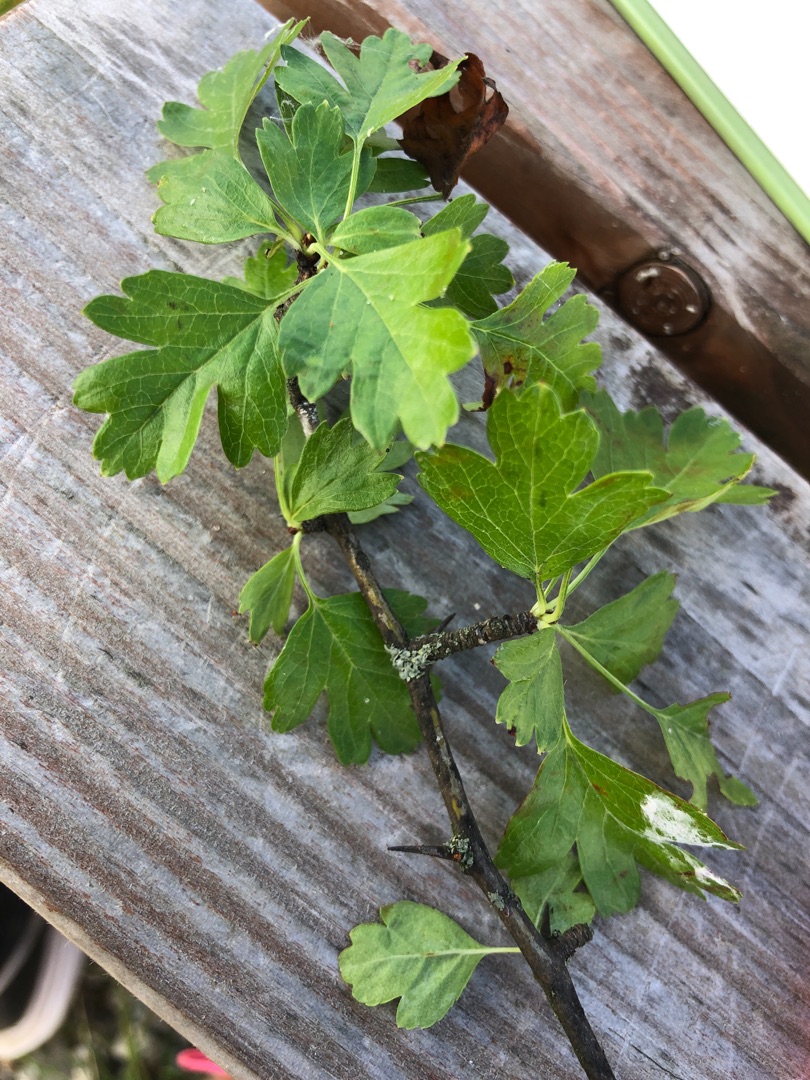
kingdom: Plantae
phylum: Tracheophyta
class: Magnoliopsida
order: Rosales
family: Rosaceae
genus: Crataegus
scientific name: Crataegus media
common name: Almindelig hvidtjørn × engriflet hvidtjørn
